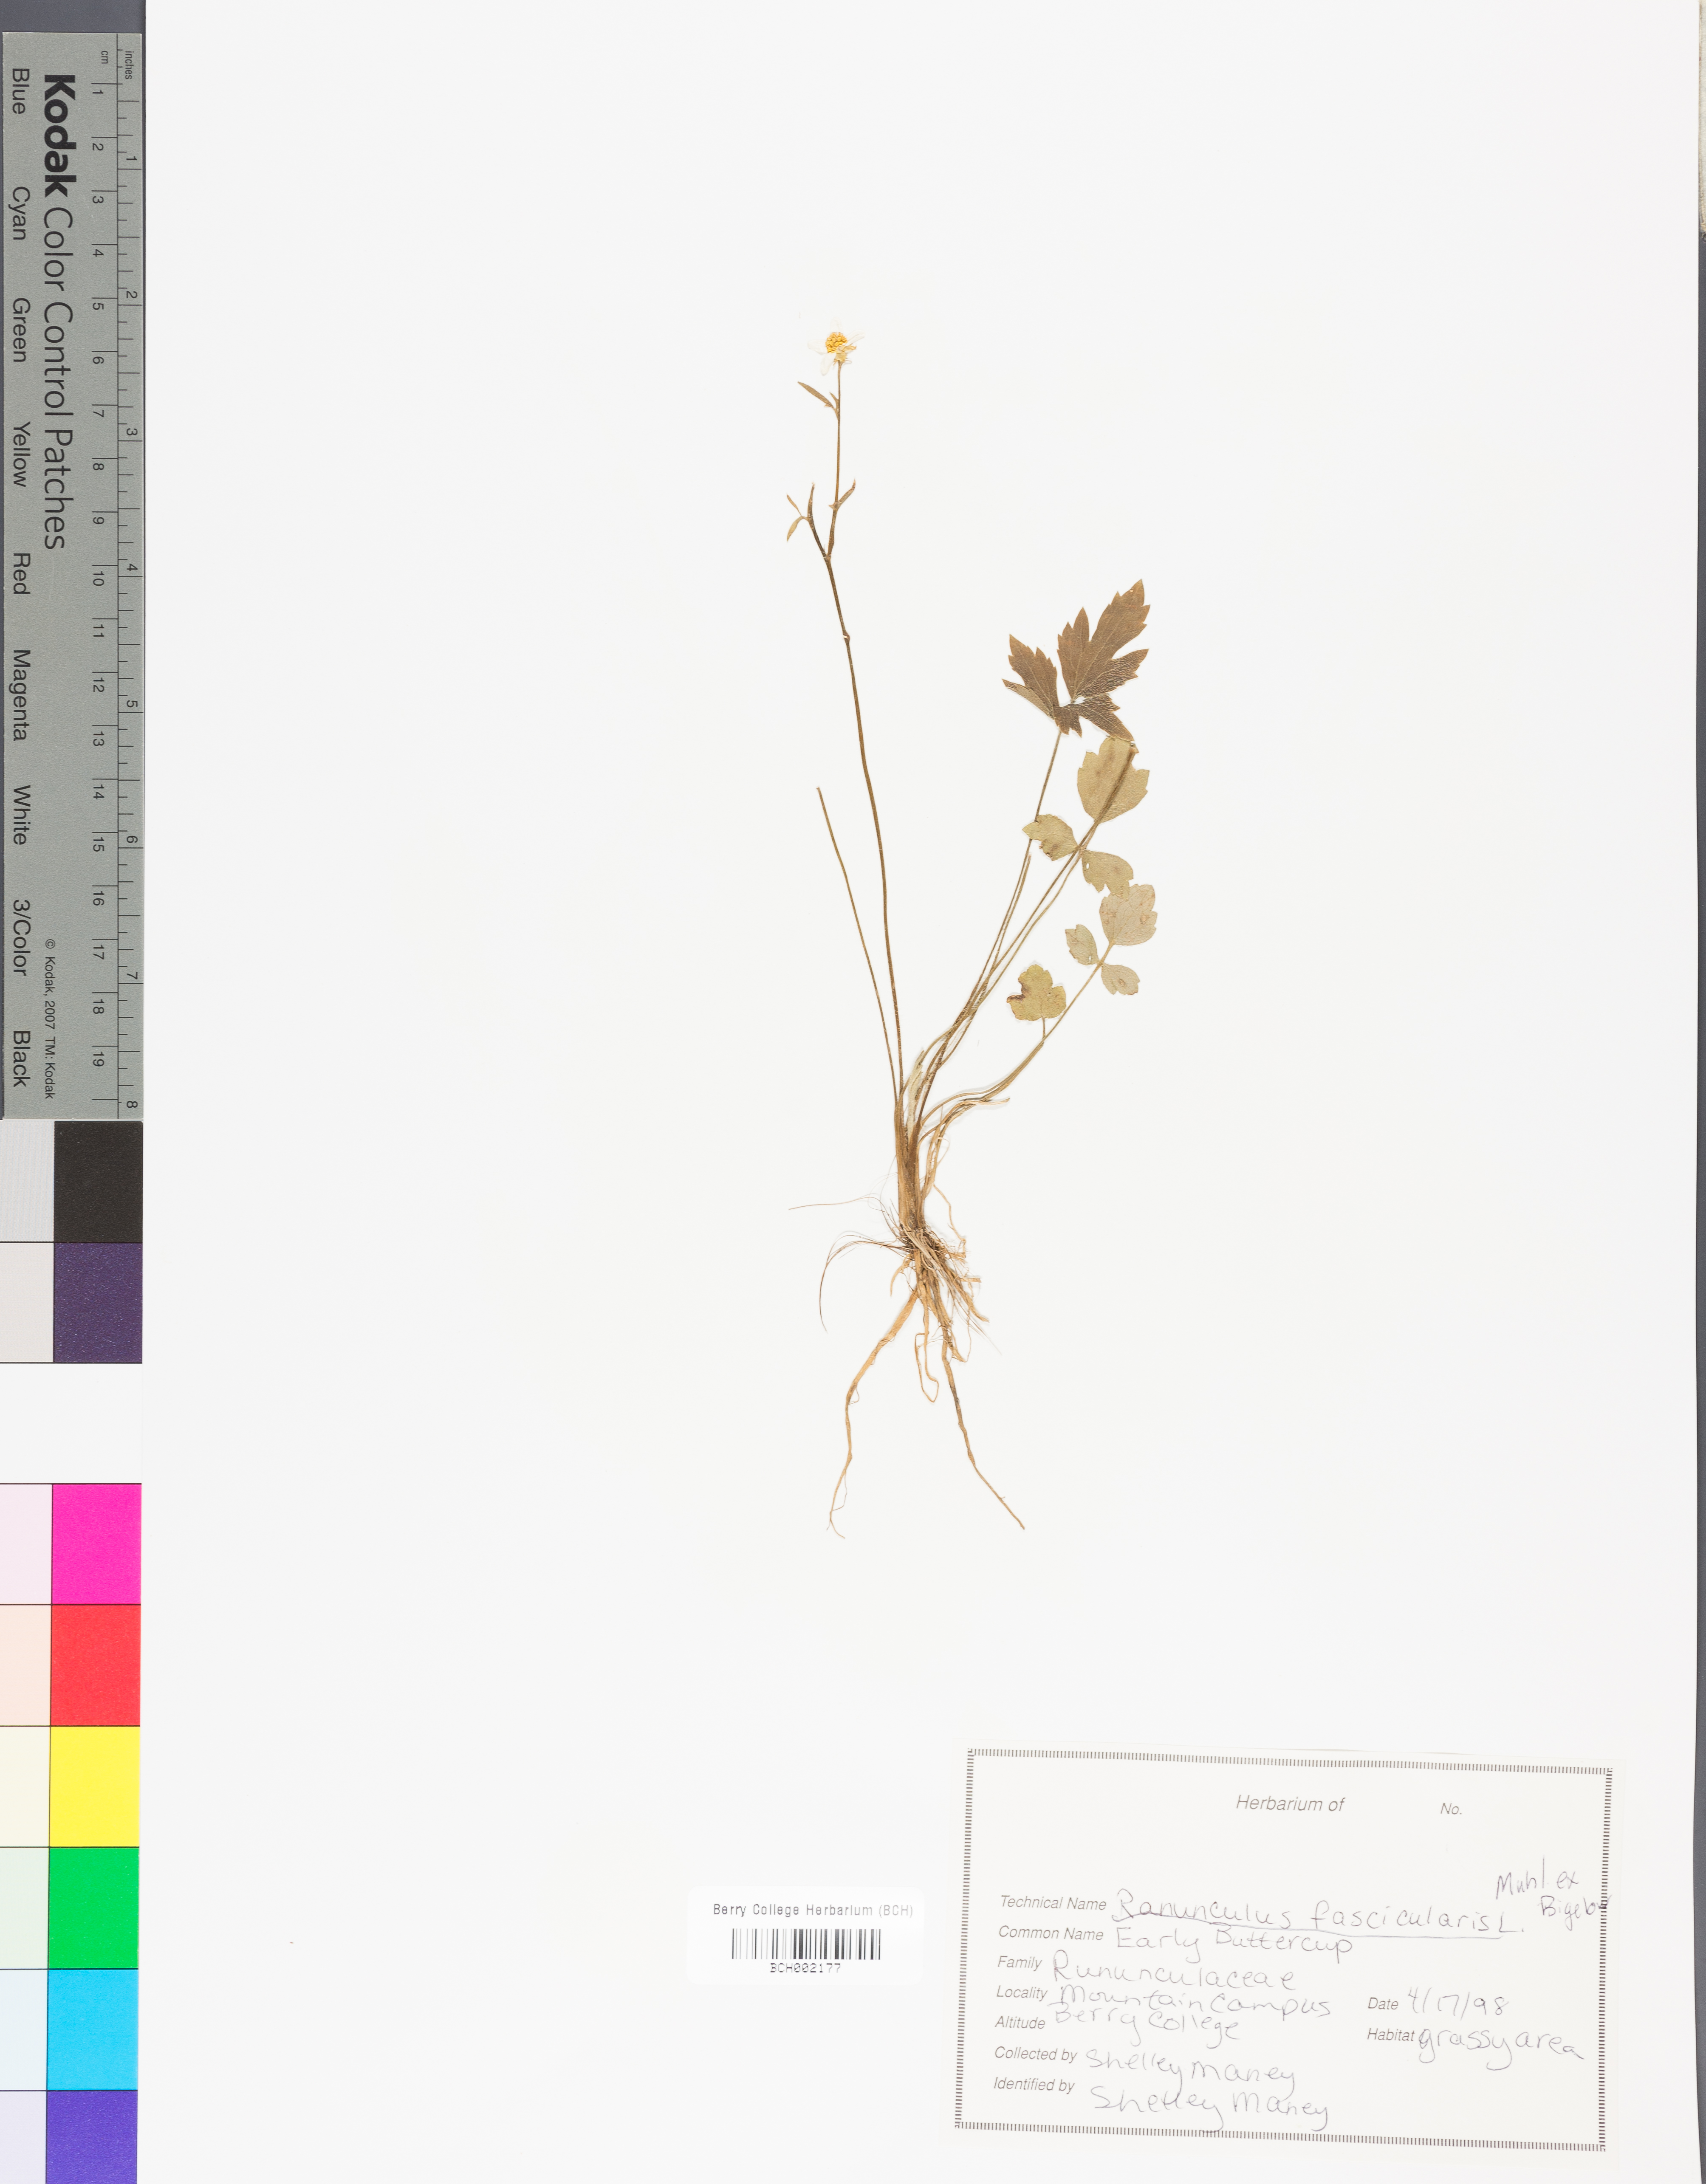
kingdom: Plantae
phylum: Tracheophyta
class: Magnoliopsida
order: Ranunculales
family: Ranunculaceae
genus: Ranunculus
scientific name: Ranunculus fascicularis
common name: Early buttercup
